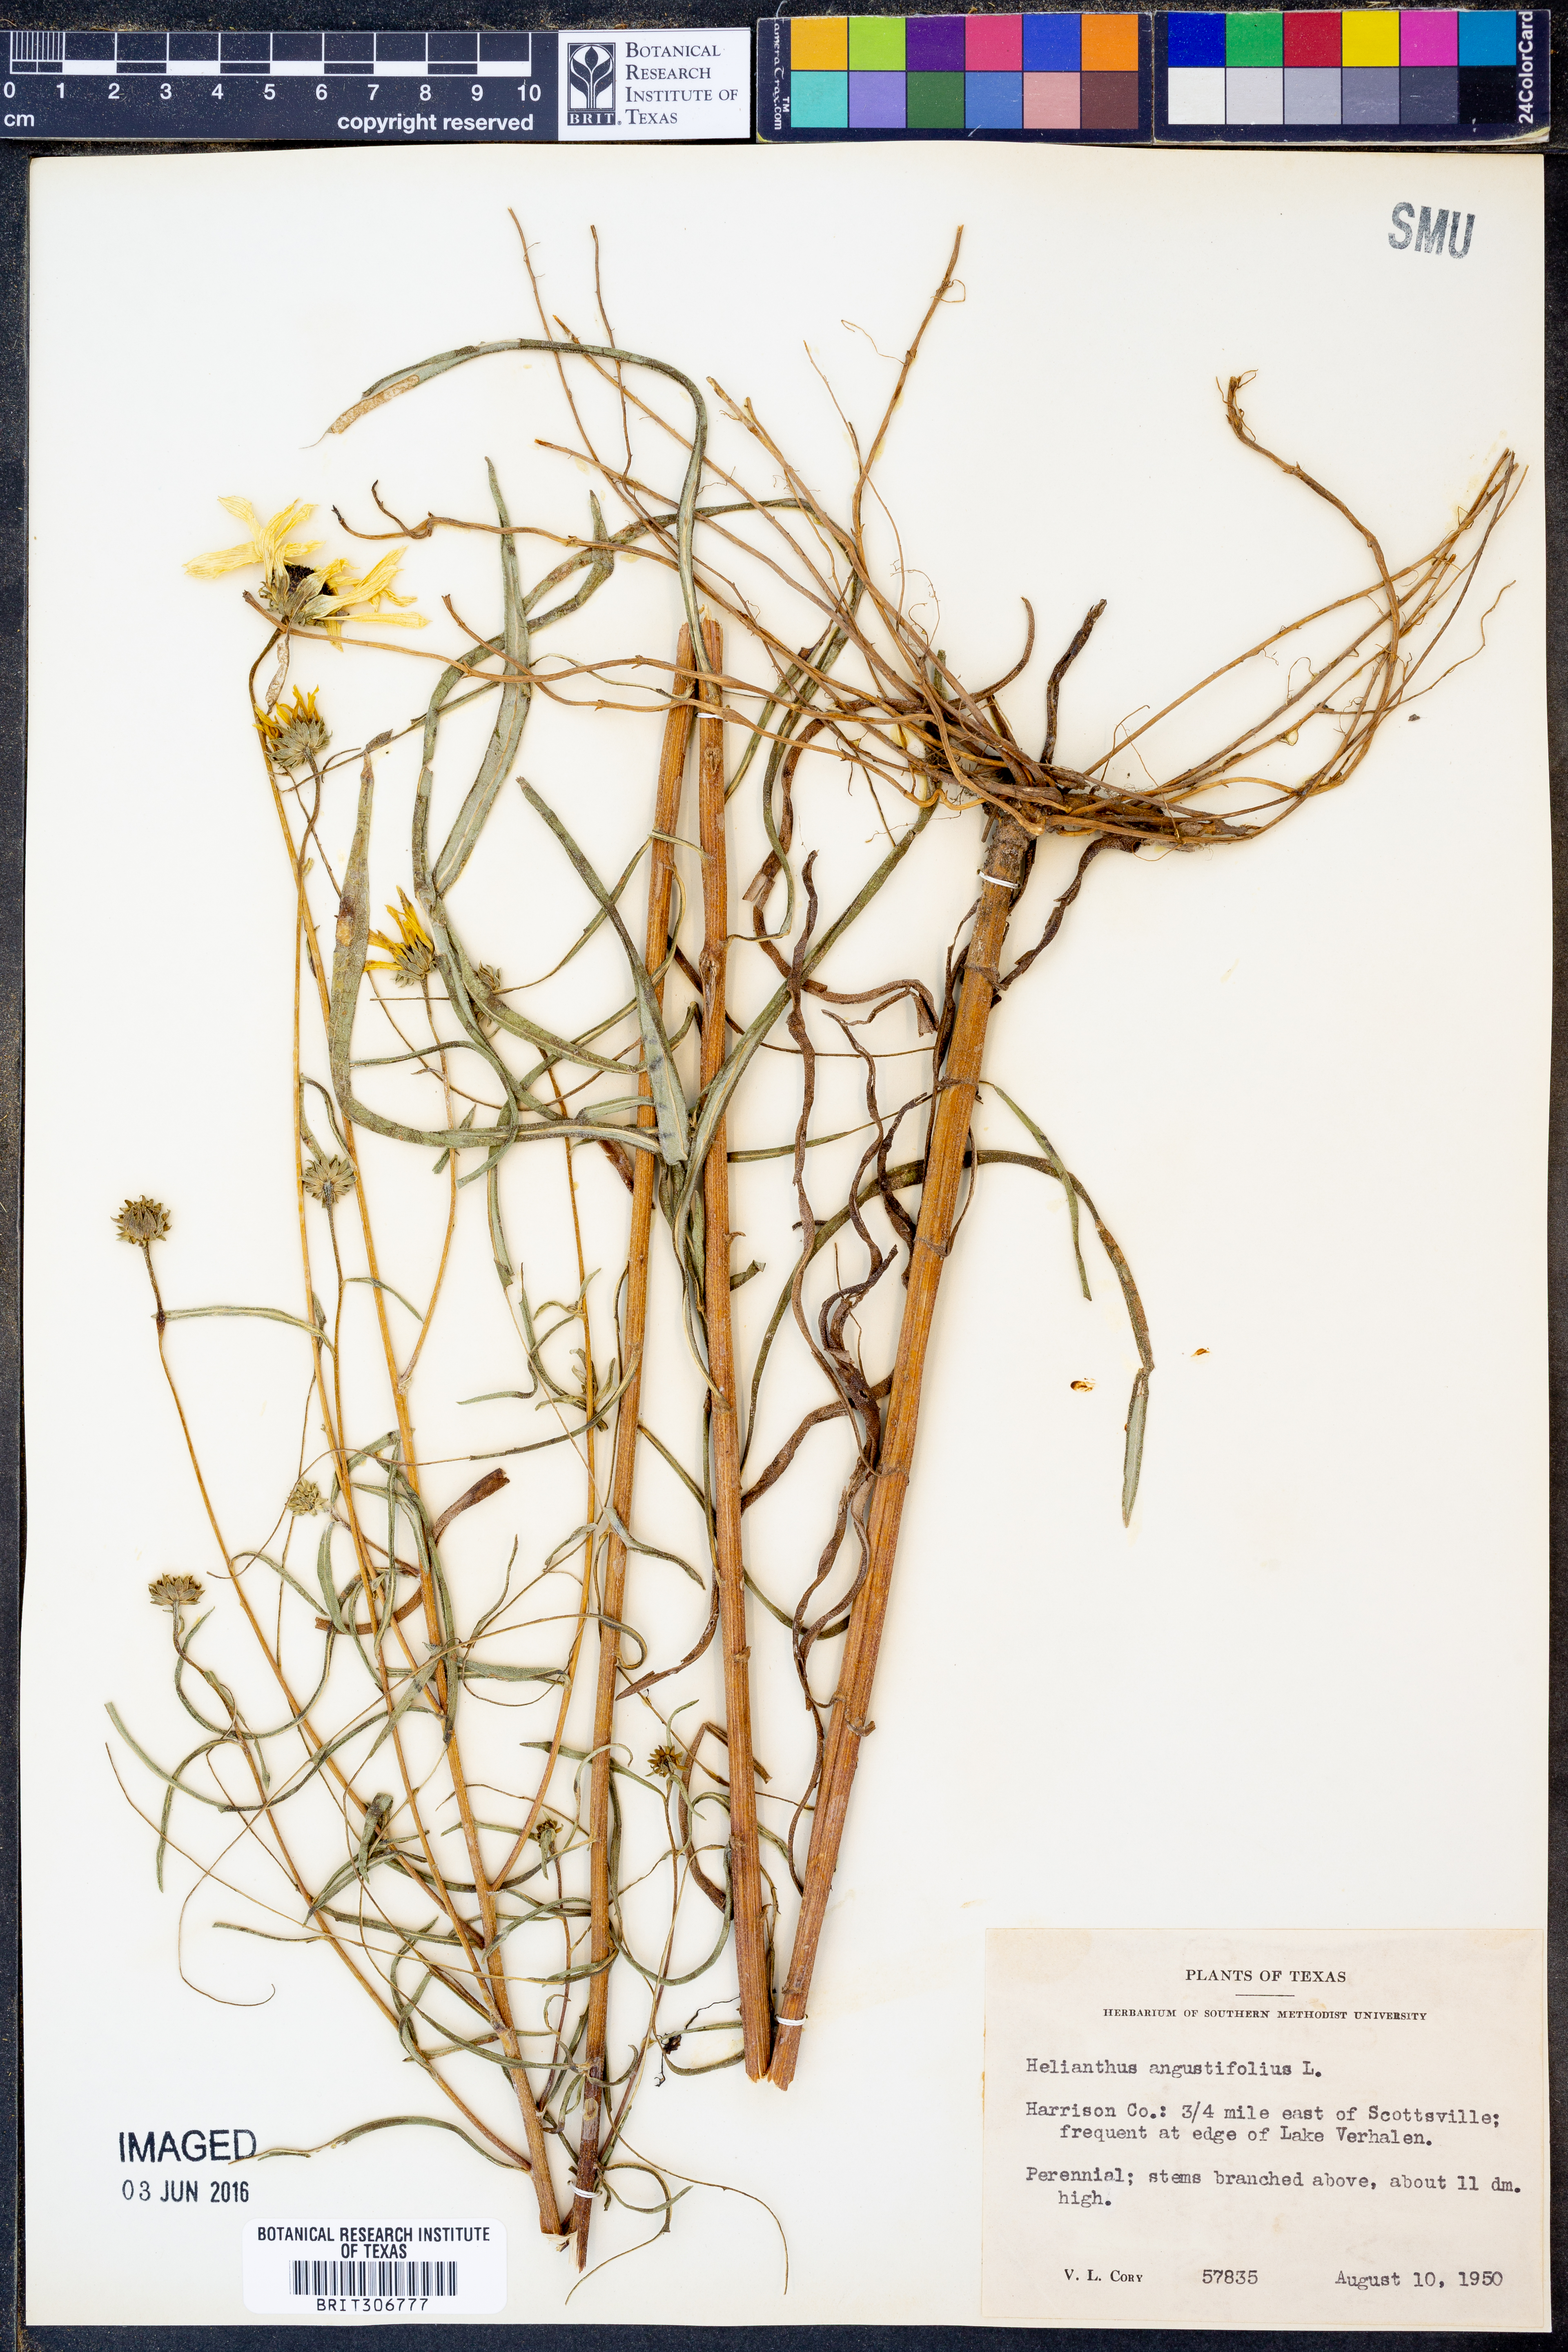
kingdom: Plantae
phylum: Tracheophyta
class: Magnoliopsida
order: Asterales
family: Asteraceae
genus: Helianthus
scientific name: Helianthus angustifolius
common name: Swamp sunflower
